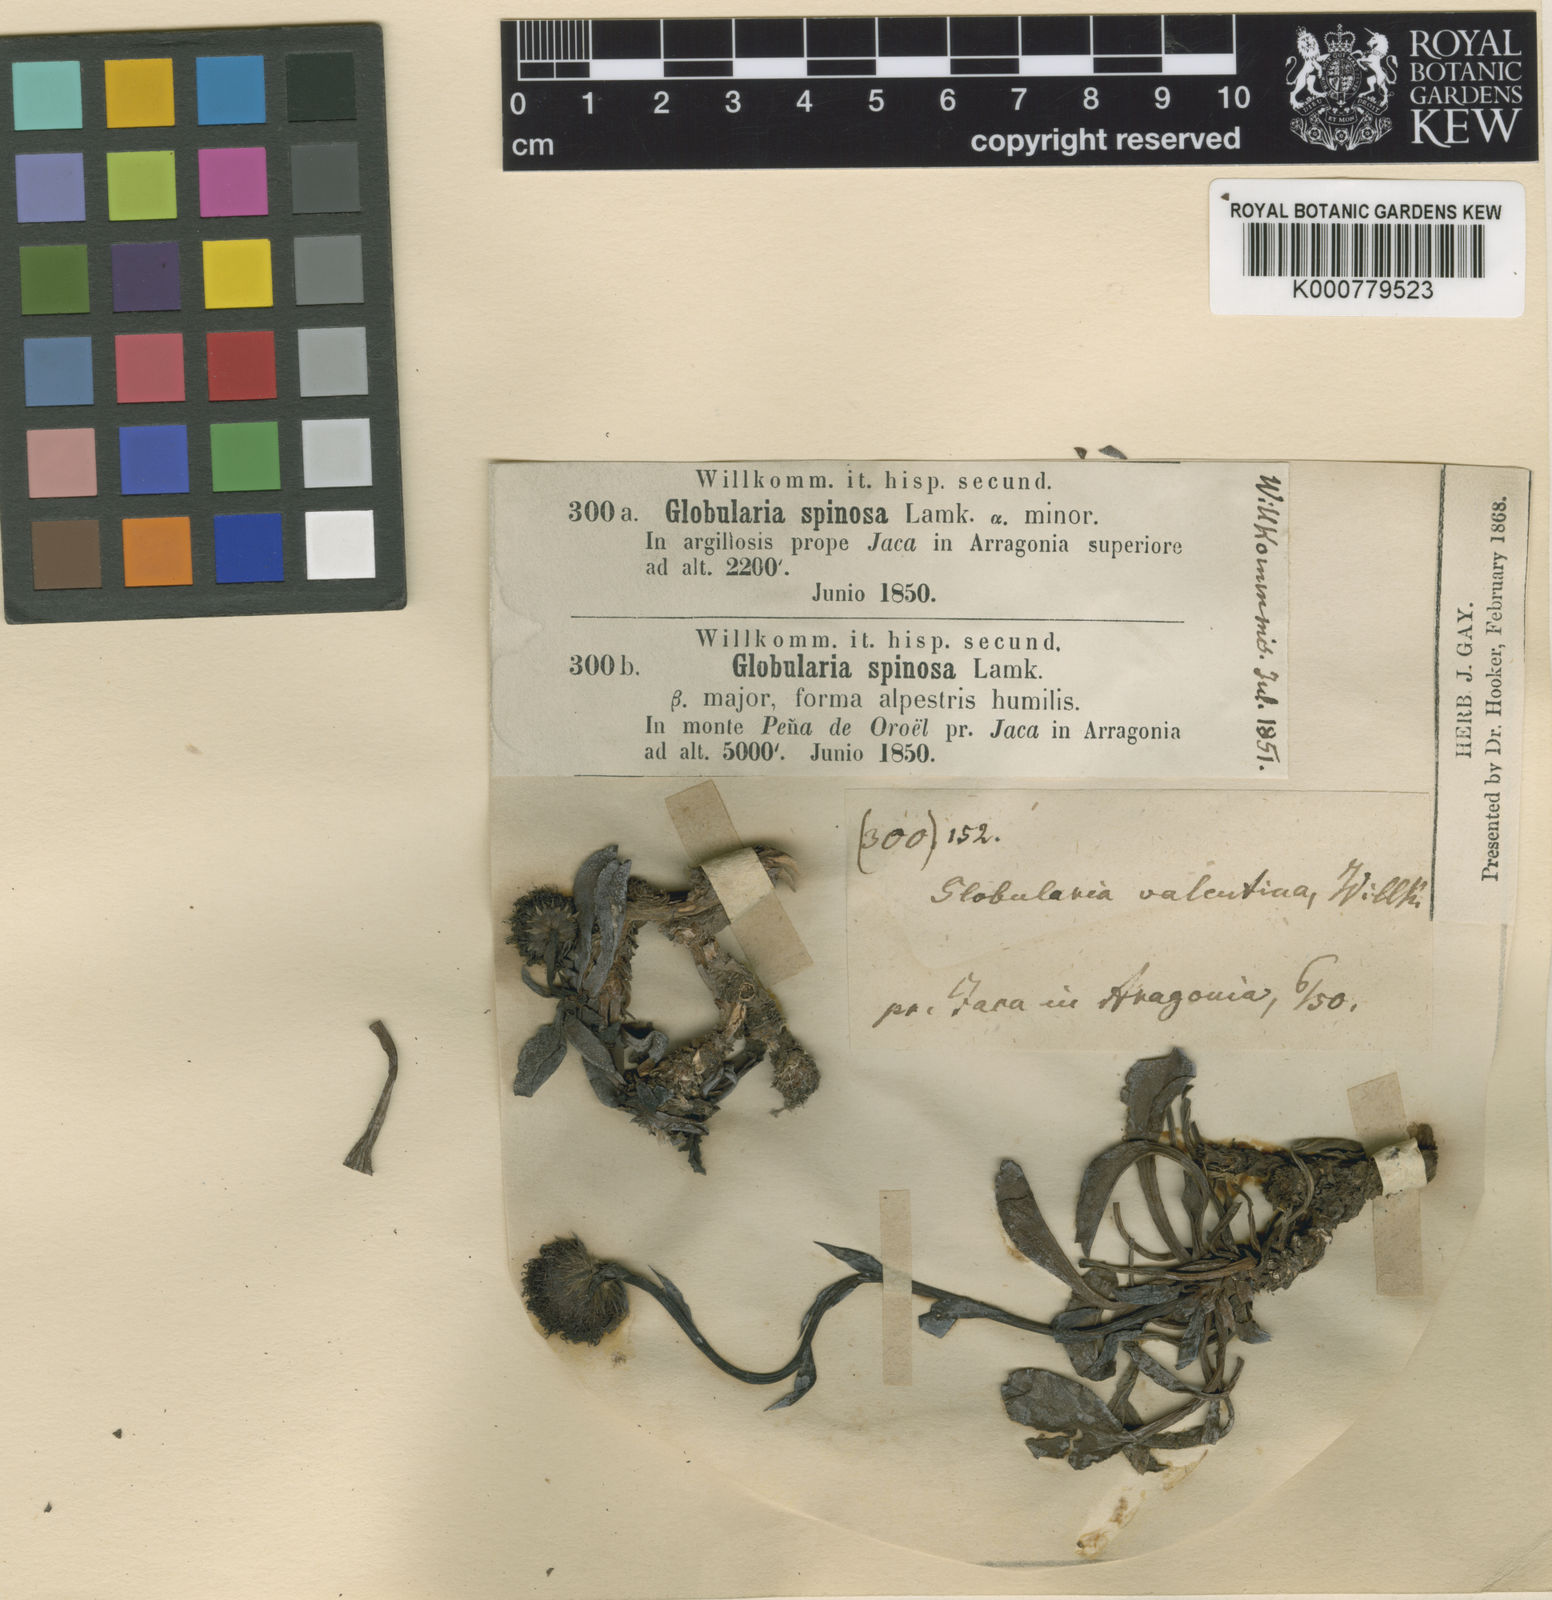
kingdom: Plantae
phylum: Tracheophyta
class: Magnoliopsida
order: Lamiales
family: Plantaginaceae
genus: Globularia
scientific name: Globularia spinosa
